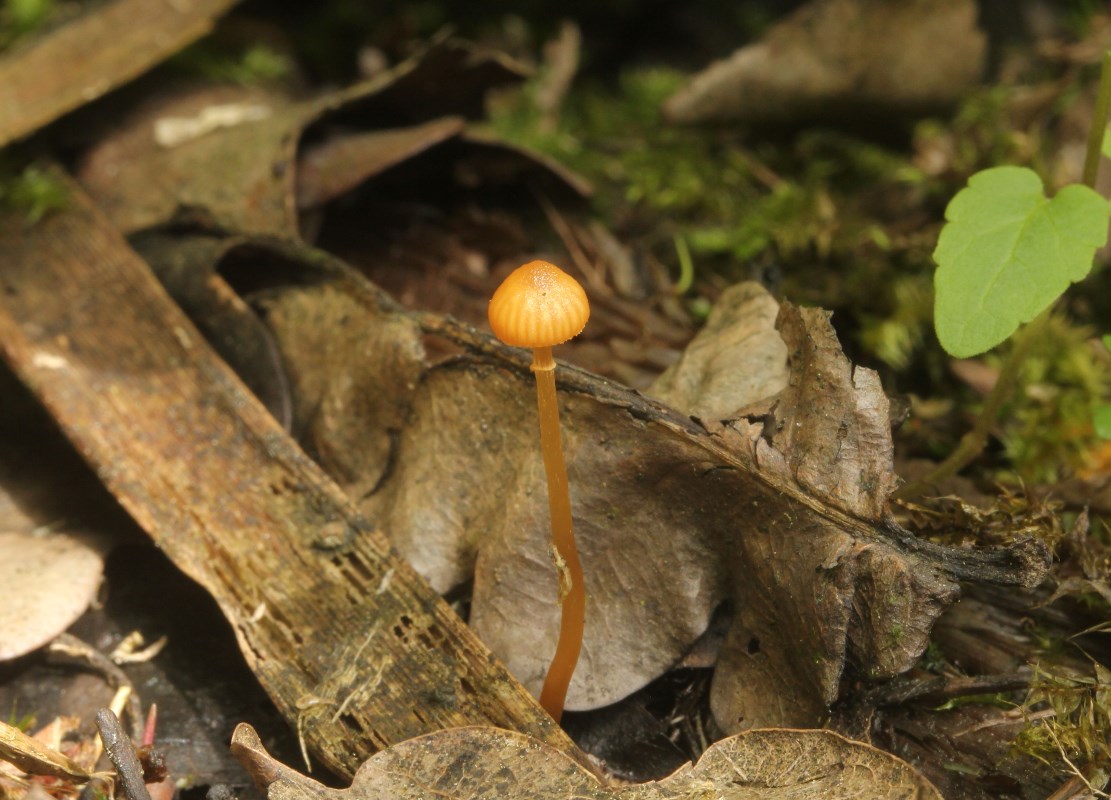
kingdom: Fungi
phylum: Basidiomycota
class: Agaricomycetes
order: Agaricales
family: Hymenogastraceae
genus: Galerina
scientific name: Galerina jaapii
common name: hvidbæltet hjelmhat
